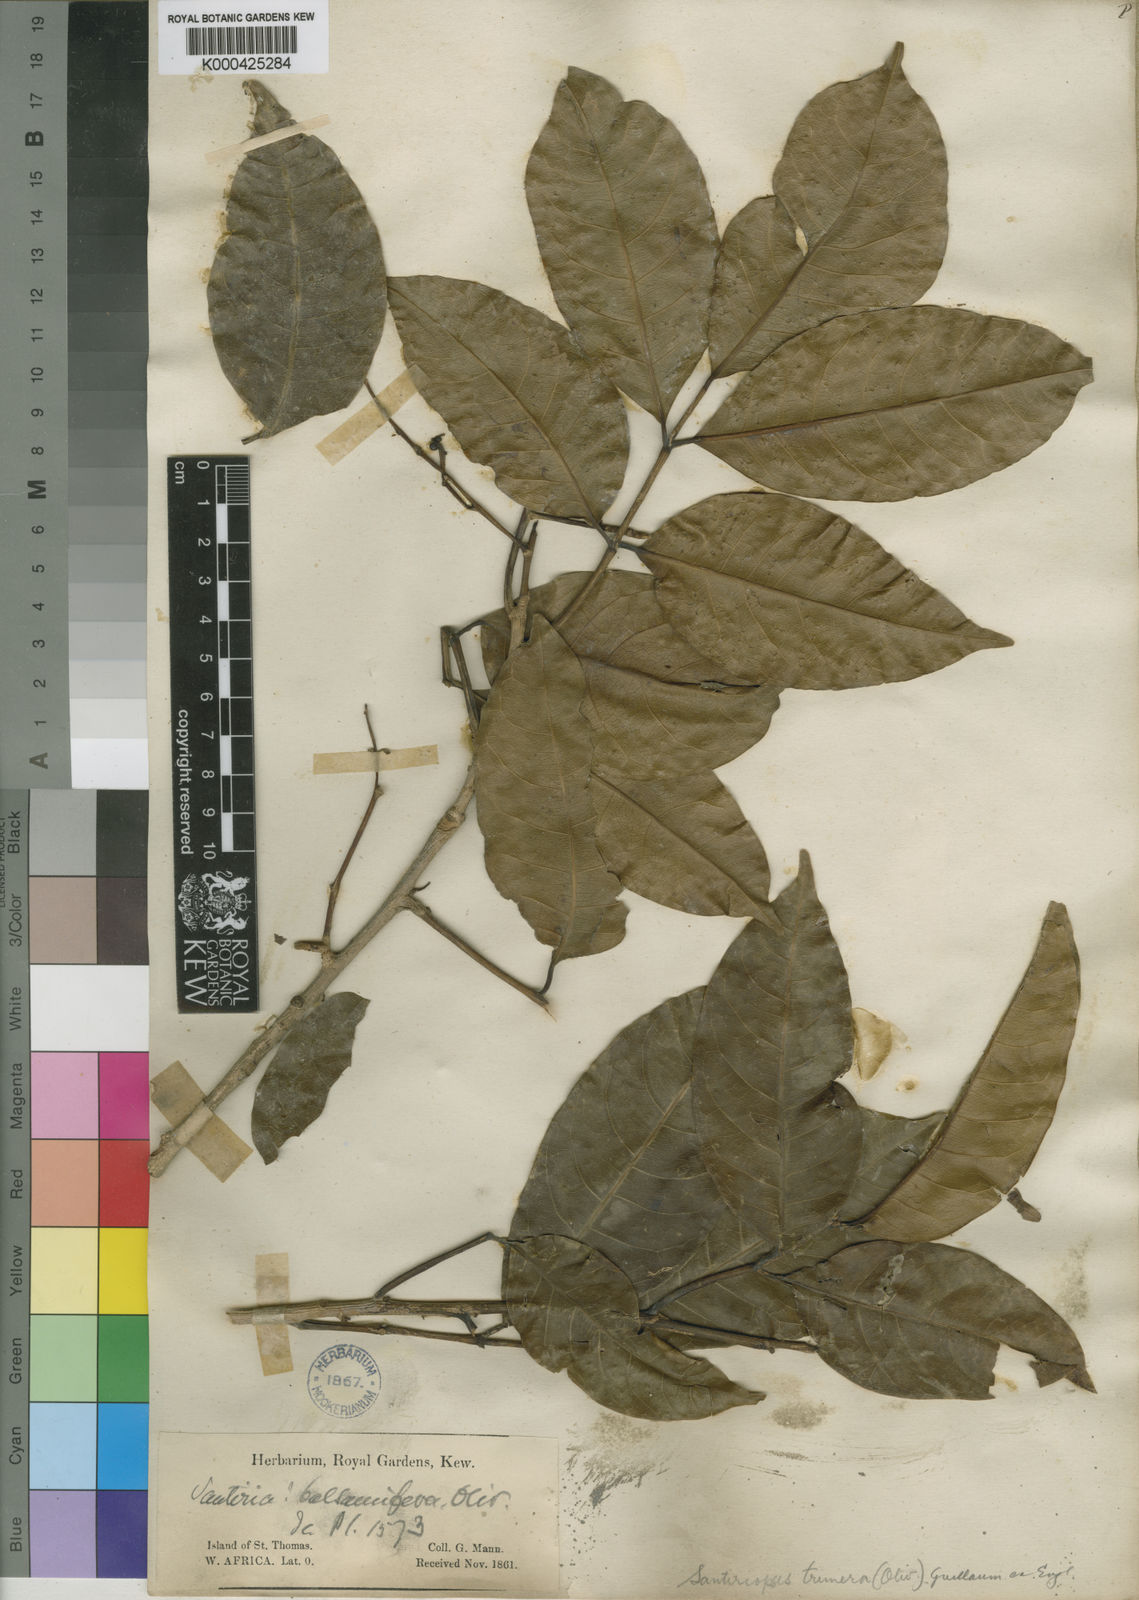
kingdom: Plantae
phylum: Tracheophyta
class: Magnoliopsida
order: Sapindales
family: Burseraceae
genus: Santiria
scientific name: Santiria
